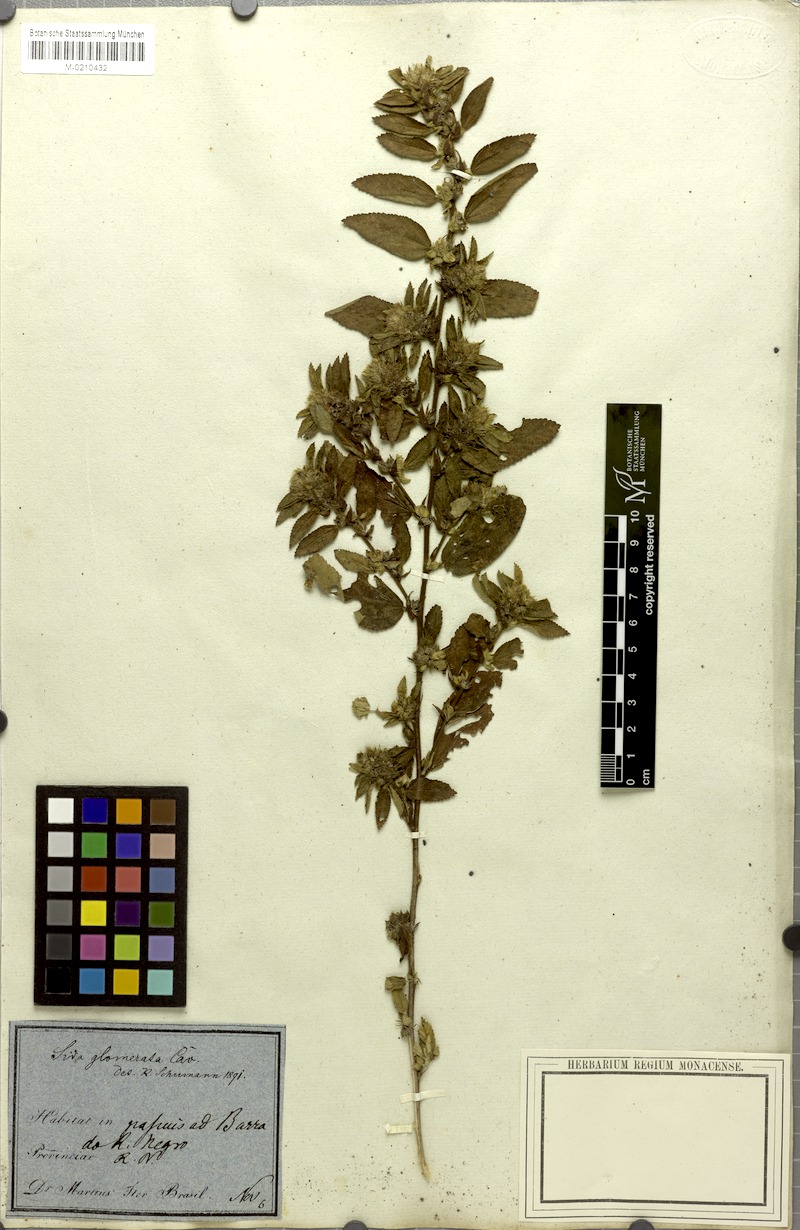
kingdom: Plantae
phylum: Tracheophyta
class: Magnoliopsida
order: Malvales
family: Malvaceae
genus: Sida
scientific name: Sida glomerata
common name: Clustered fanpetals
